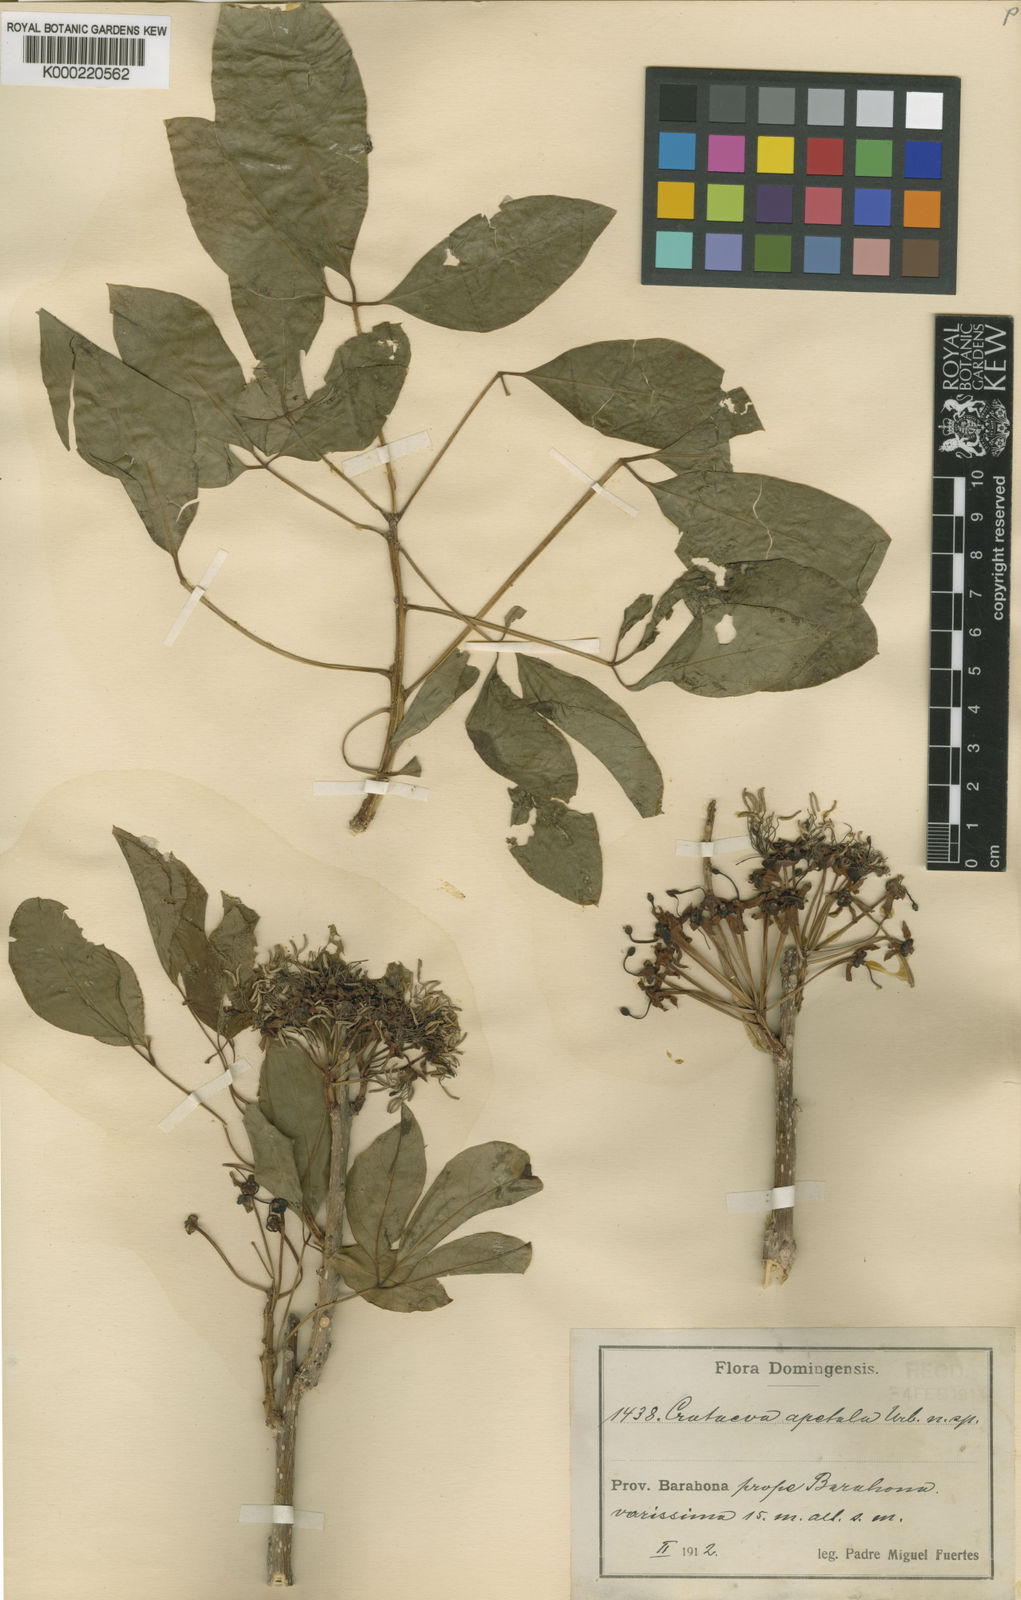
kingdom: Plantae
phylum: Tracheophyta
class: Magnoliopsida
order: Brassicales
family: Capparaceae
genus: Crateva
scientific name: Crateva urbaniana
